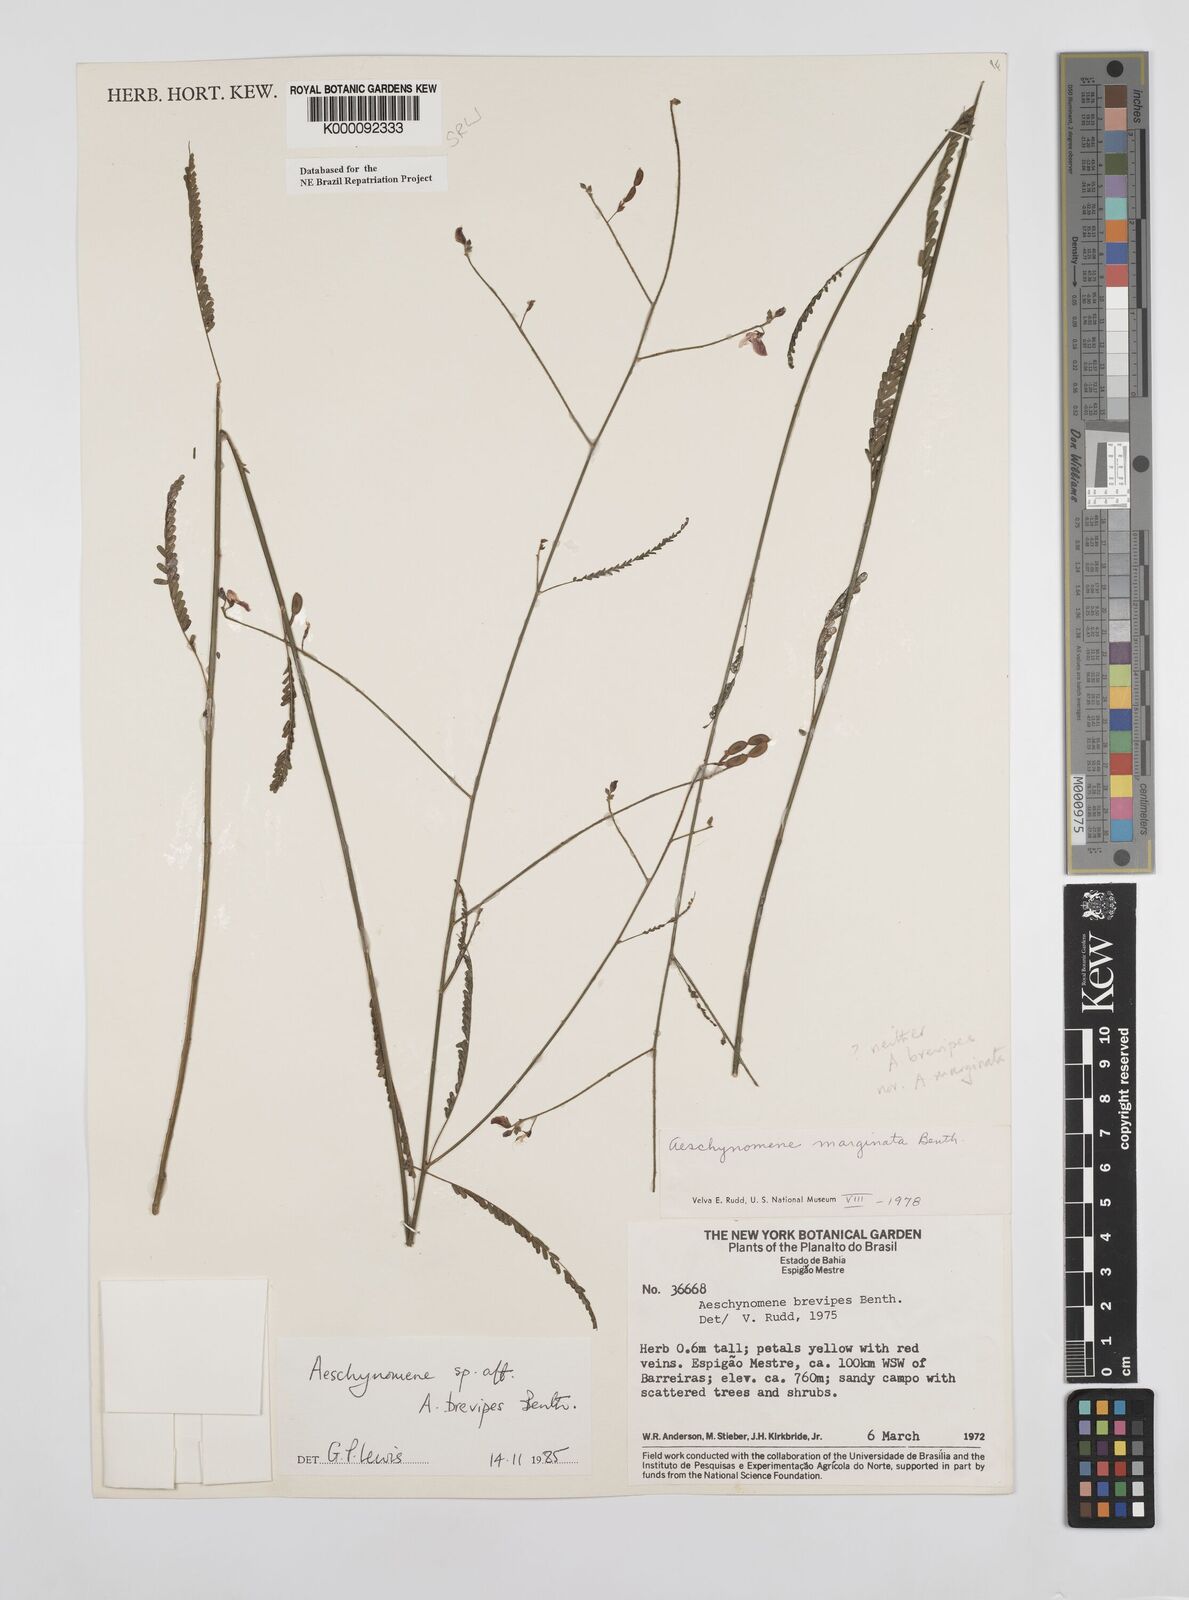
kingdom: Plantae
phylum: Tracheophyta
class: Magnoliopsida
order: Fabales
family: Fabaceae
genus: Ctenodon
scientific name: Ctenodon brevipes
